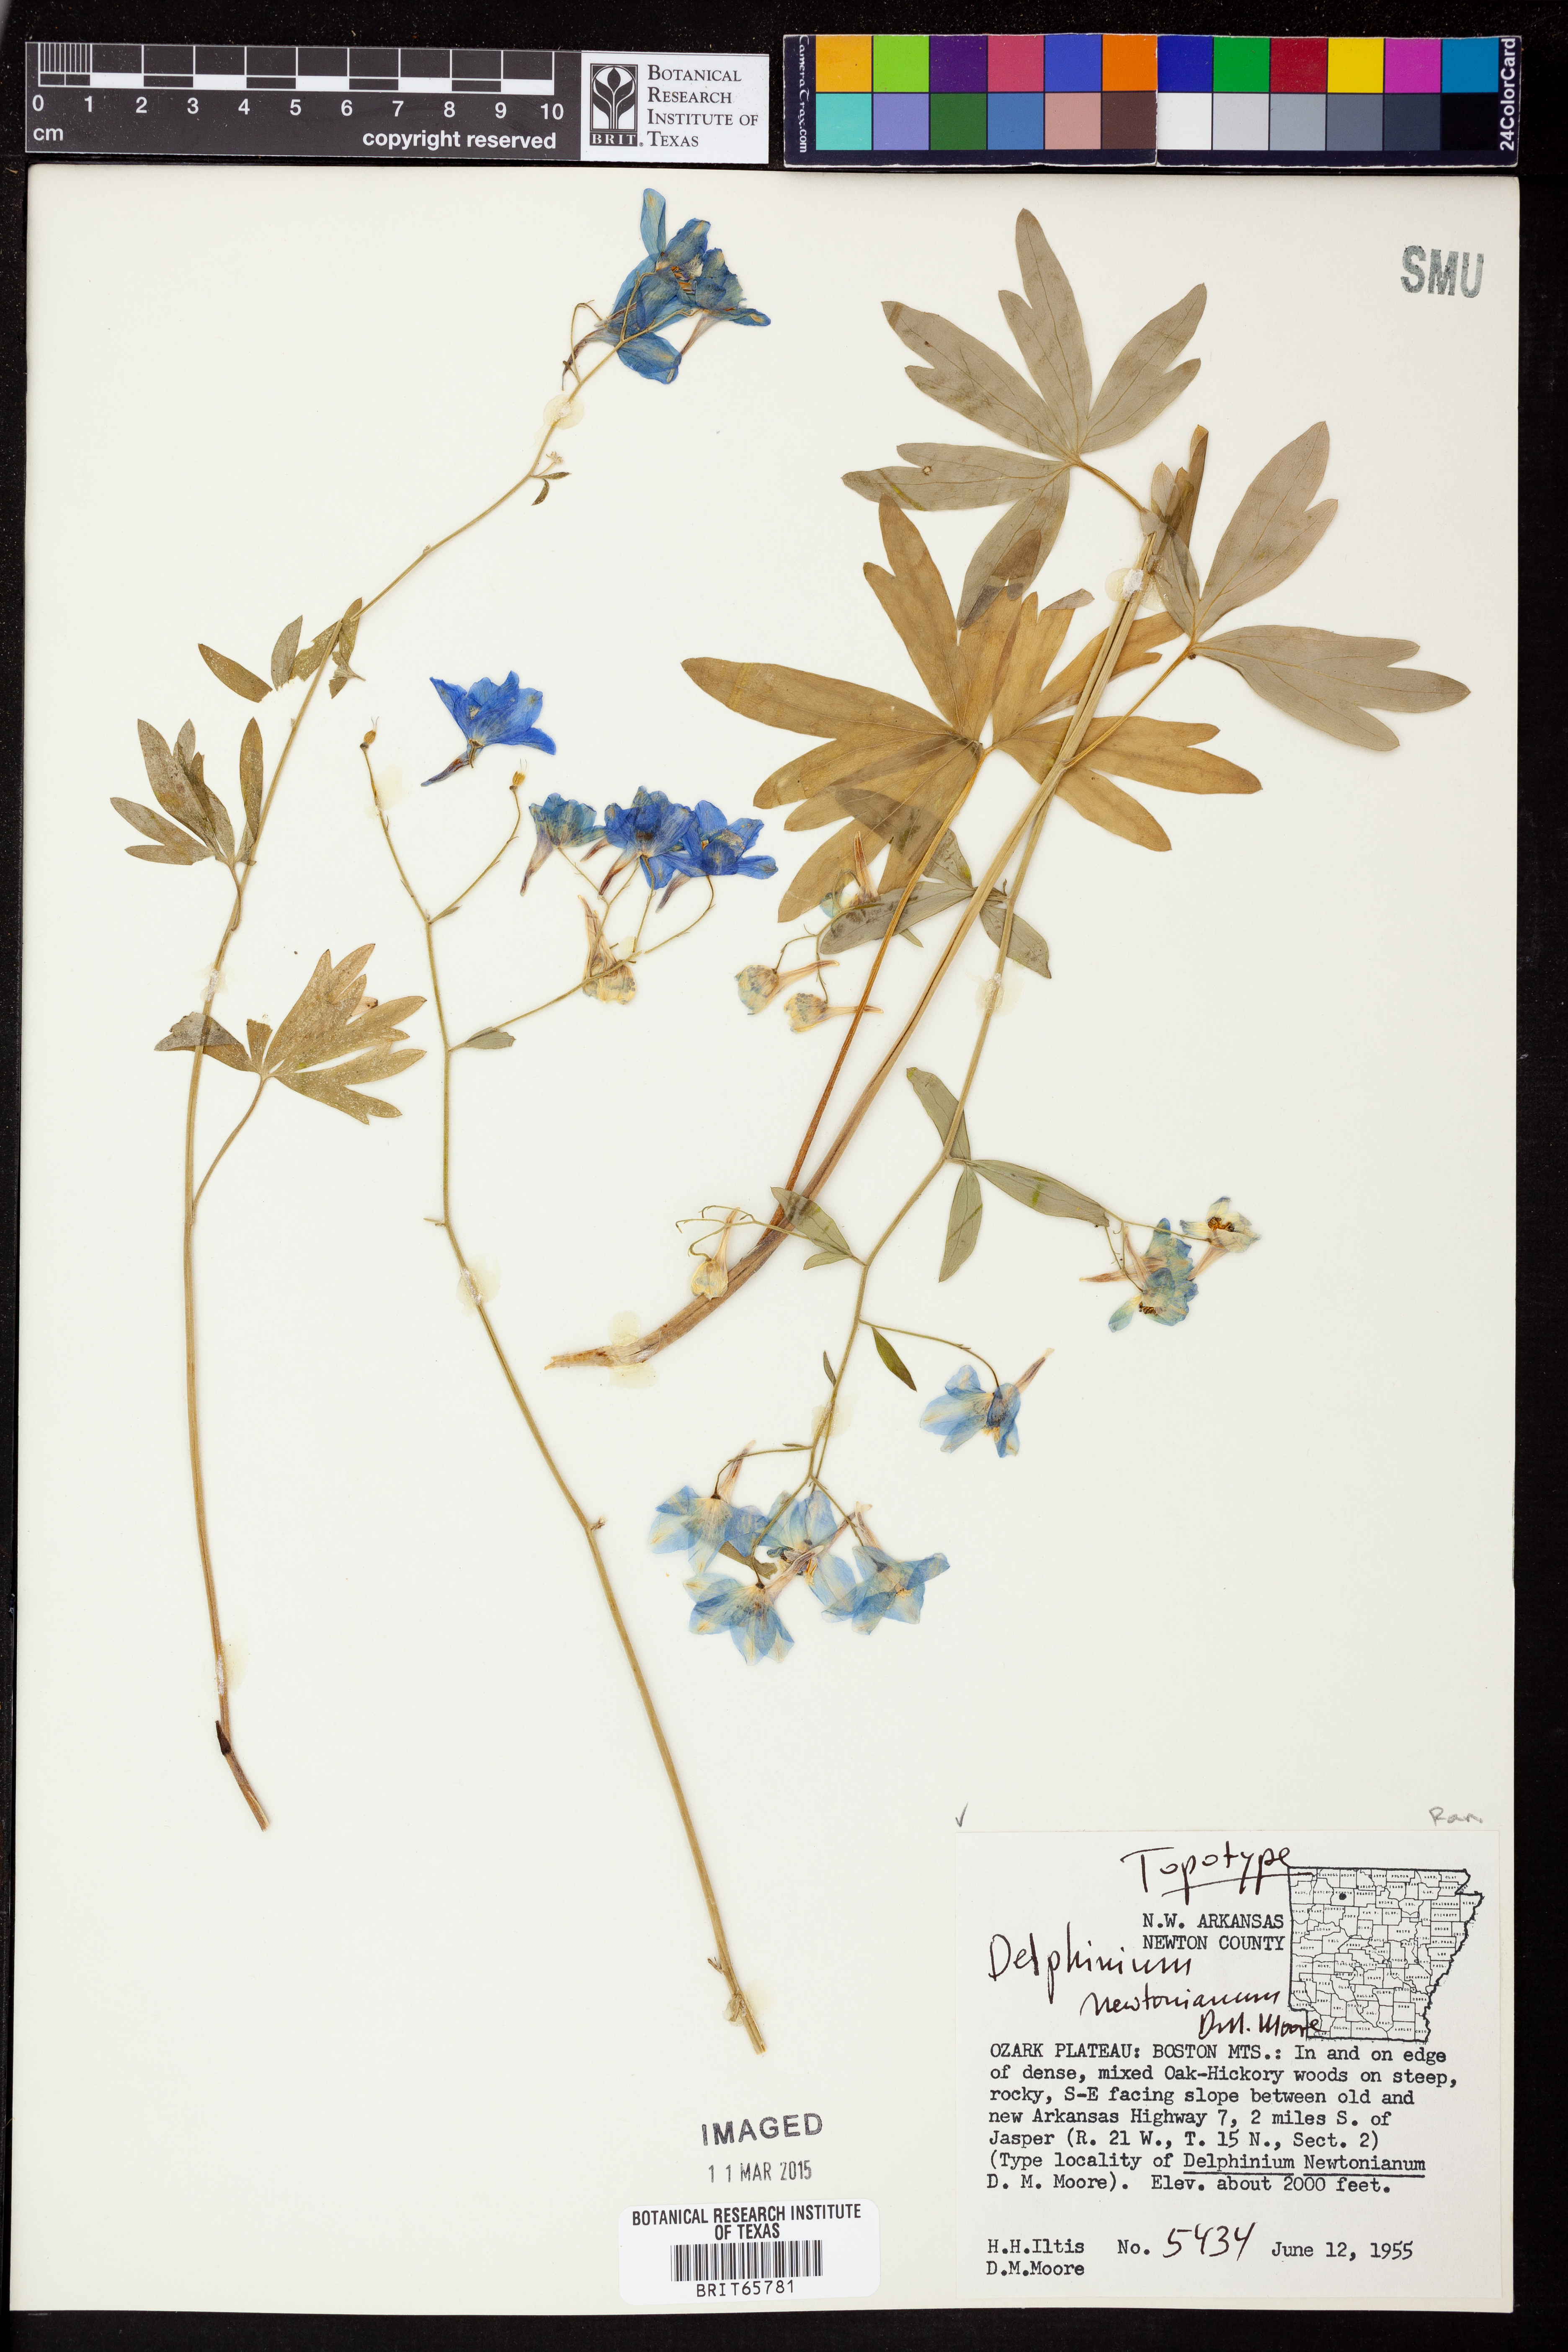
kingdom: Plantae
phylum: Tracheophyta
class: Magnoliopsida
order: Ranunculales
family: Ranunculaceae
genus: Delphinium
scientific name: Delphinium newtonianum
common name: Ozark larkspur
